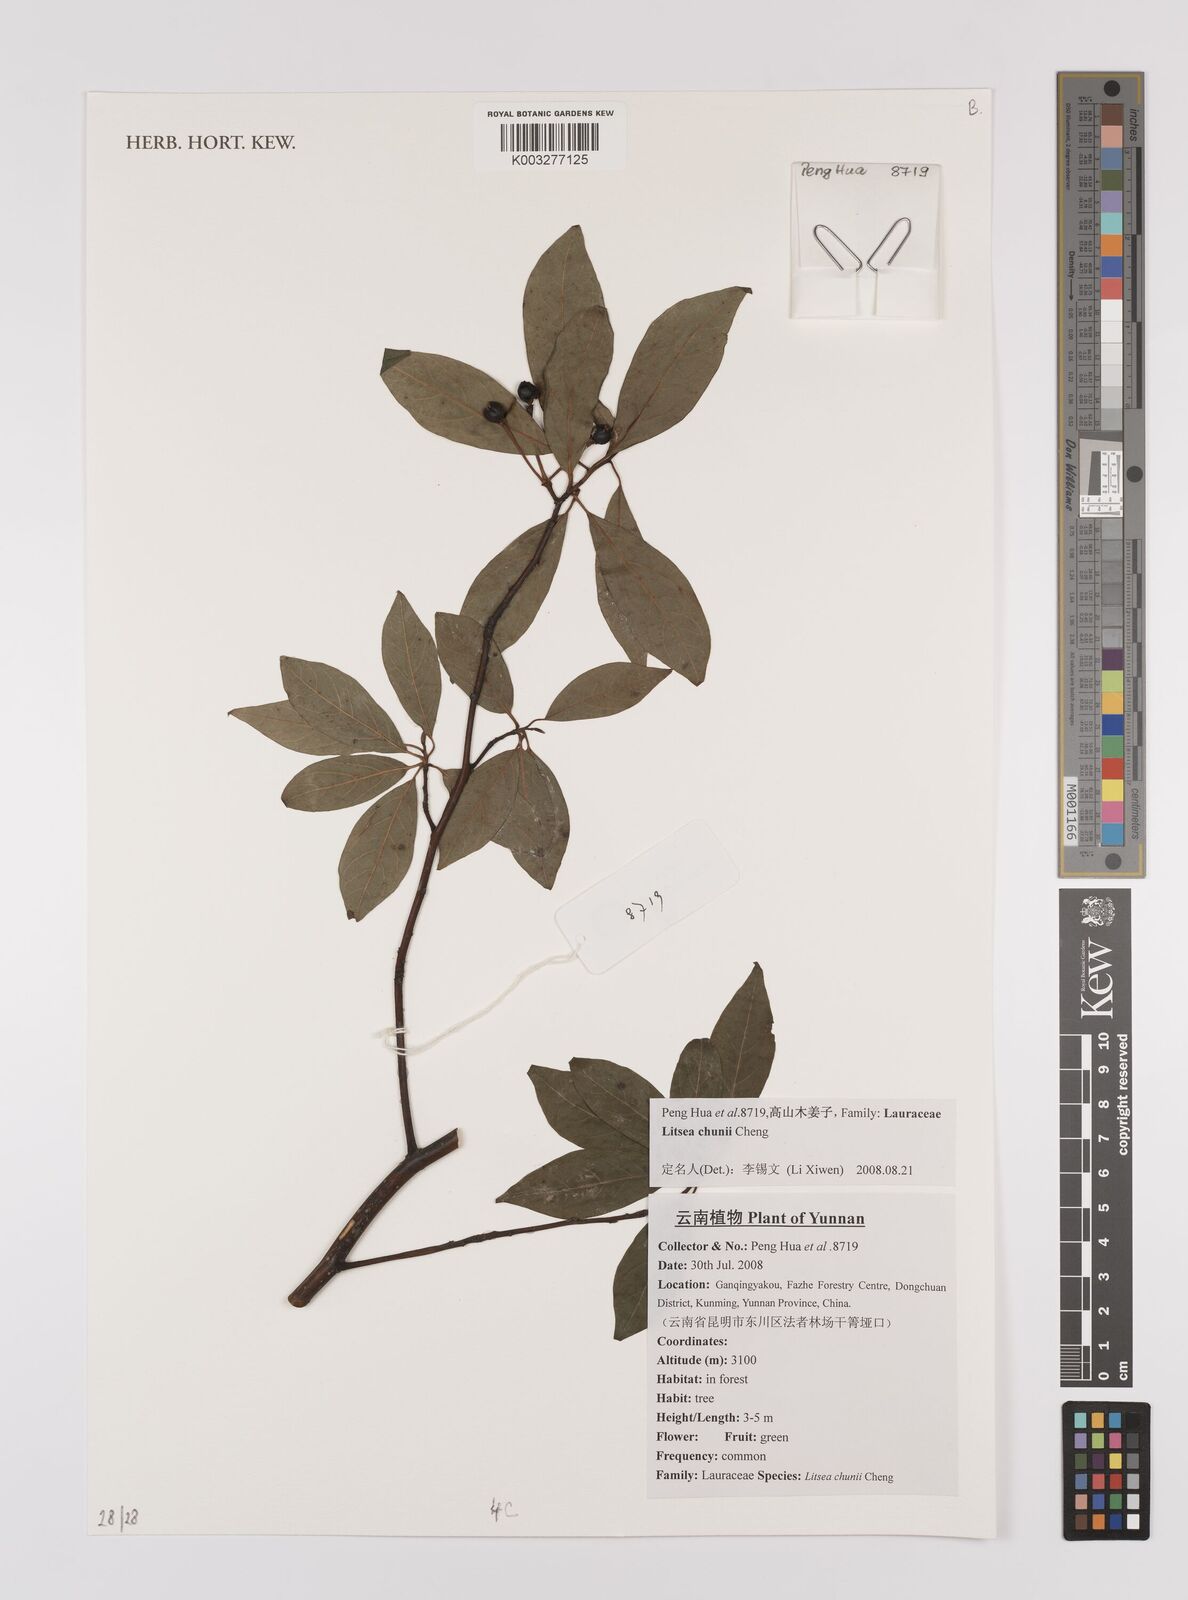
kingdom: Plantae
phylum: Tracheophyta
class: Magnoliopsida
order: Laurales
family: Lauraceae
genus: Litsea
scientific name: Litsea chunii
